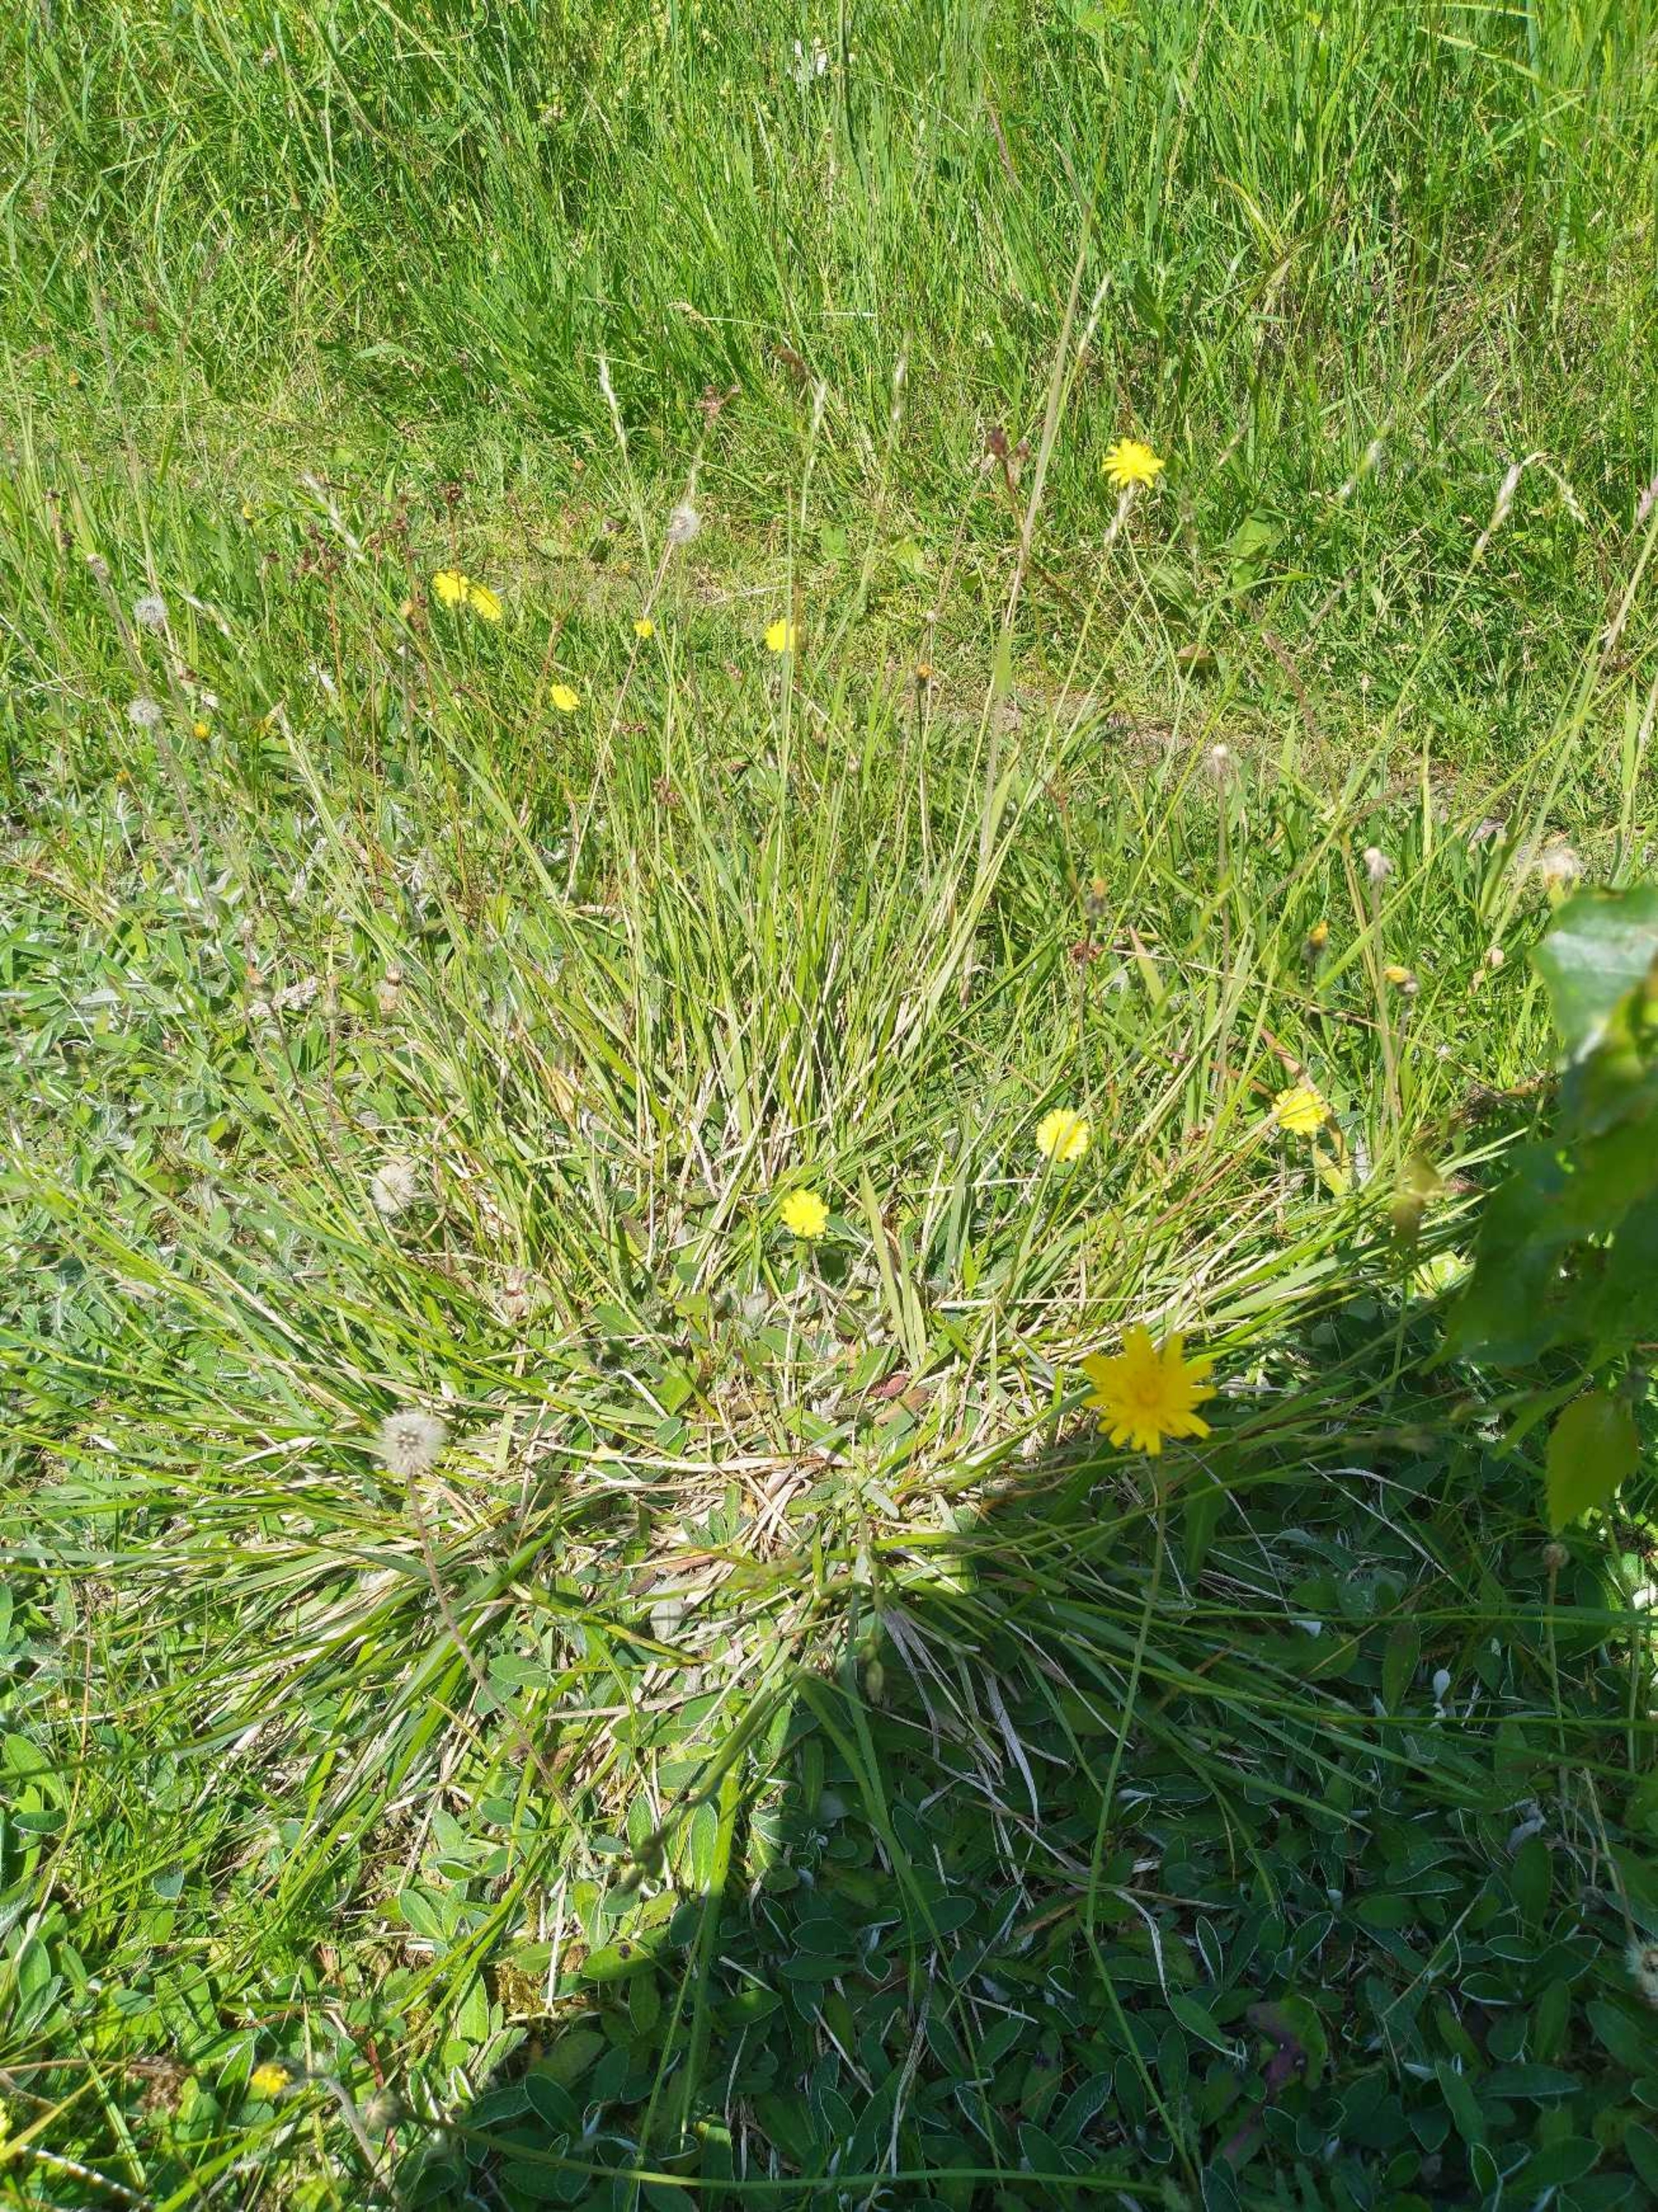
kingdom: Plantae
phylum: Tracheophyta
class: Liliopsida
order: Poales
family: Poaceae
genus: Danthonia
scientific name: Danthonia decumbens
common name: Tandbælg
